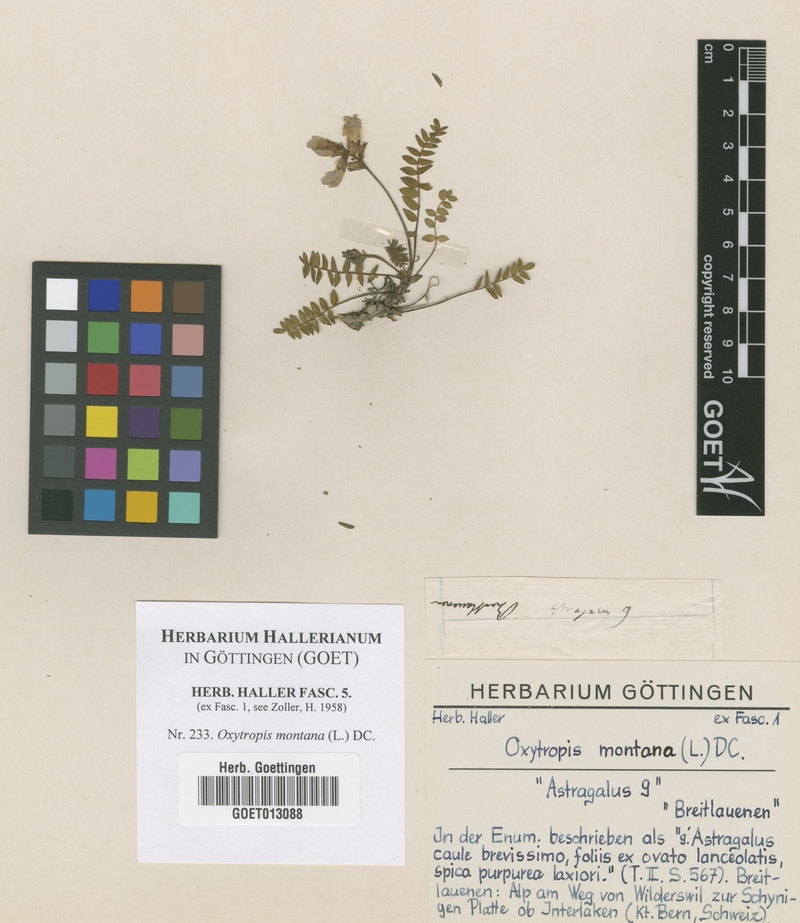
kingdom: Plantae
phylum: Tracheophyta
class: Magnoliopsida
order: Fabales
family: Fabaceae
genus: Oxytropis
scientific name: Oxytropis montana
